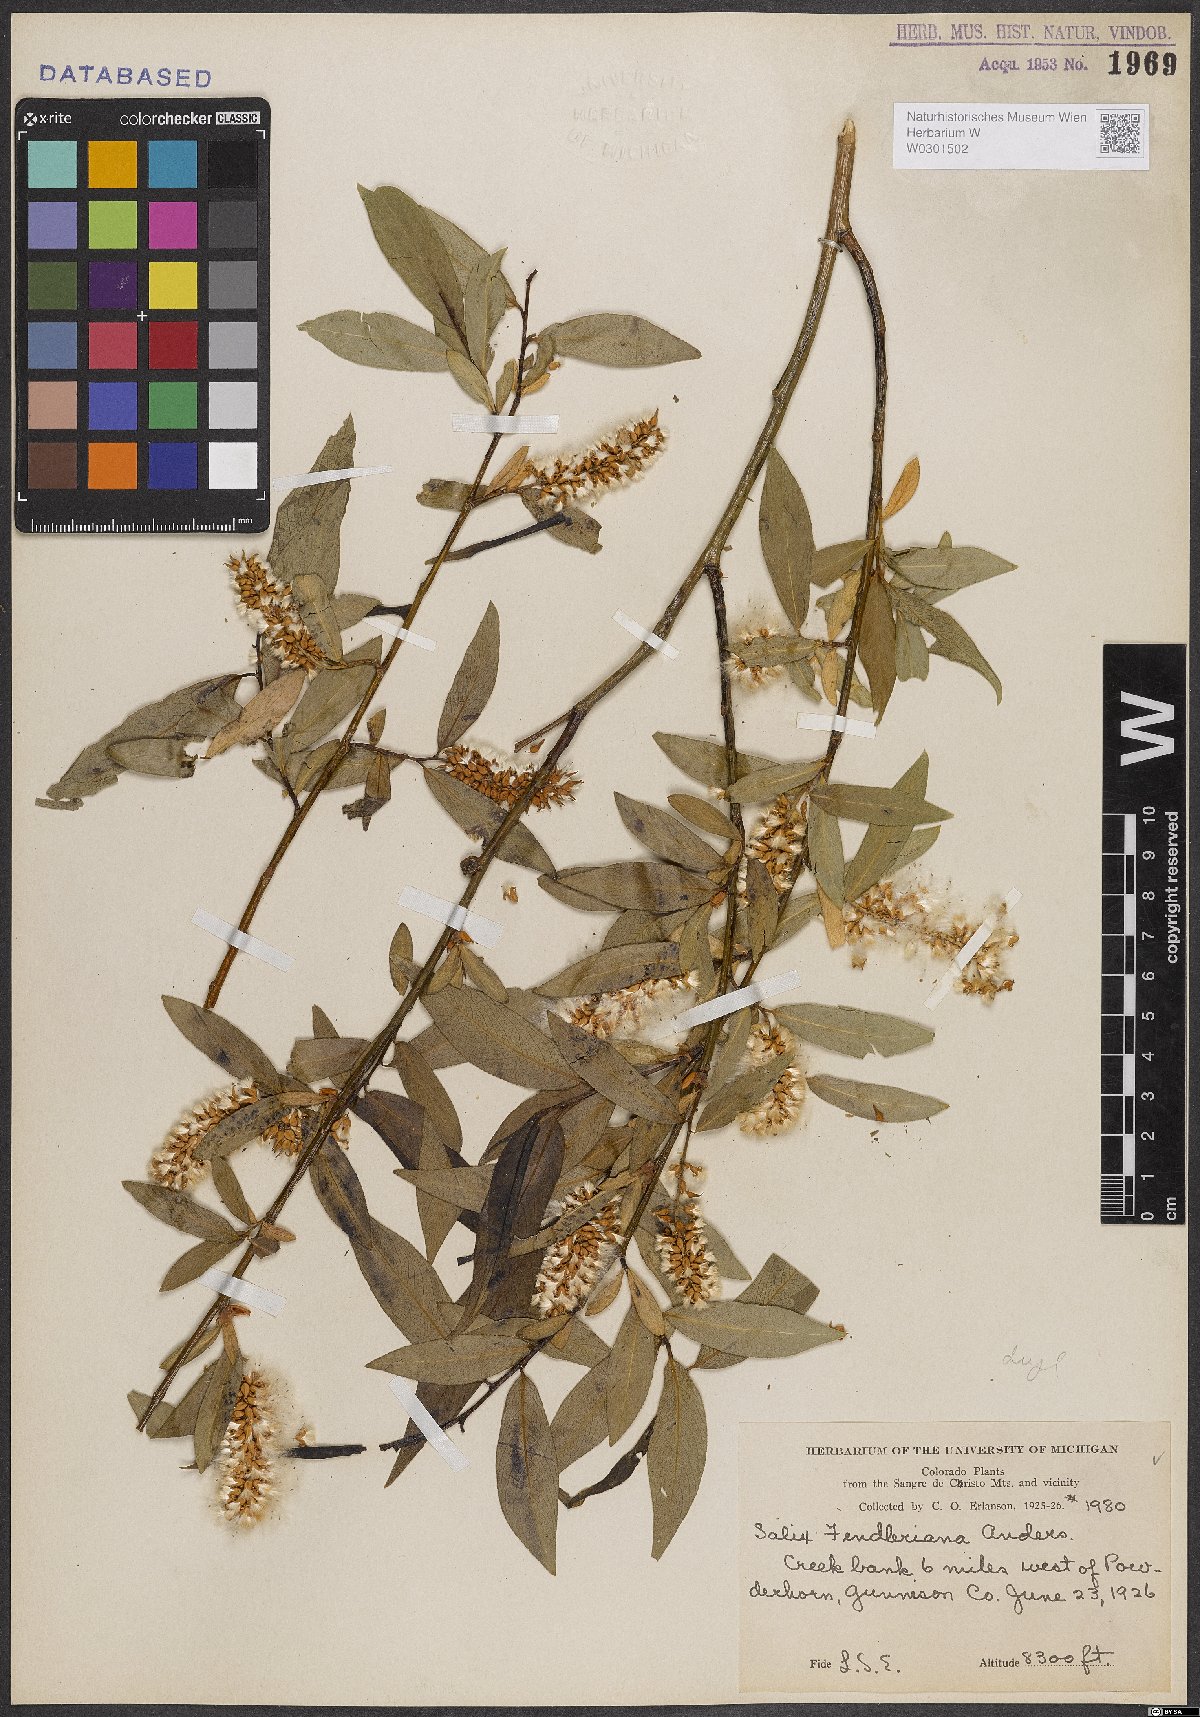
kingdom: Plantae
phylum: Tracheophyta
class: Magnoliopsida
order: Malpighiales
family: Salicaceae
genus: Salix
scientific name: Salix lucida
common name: Shining willow
